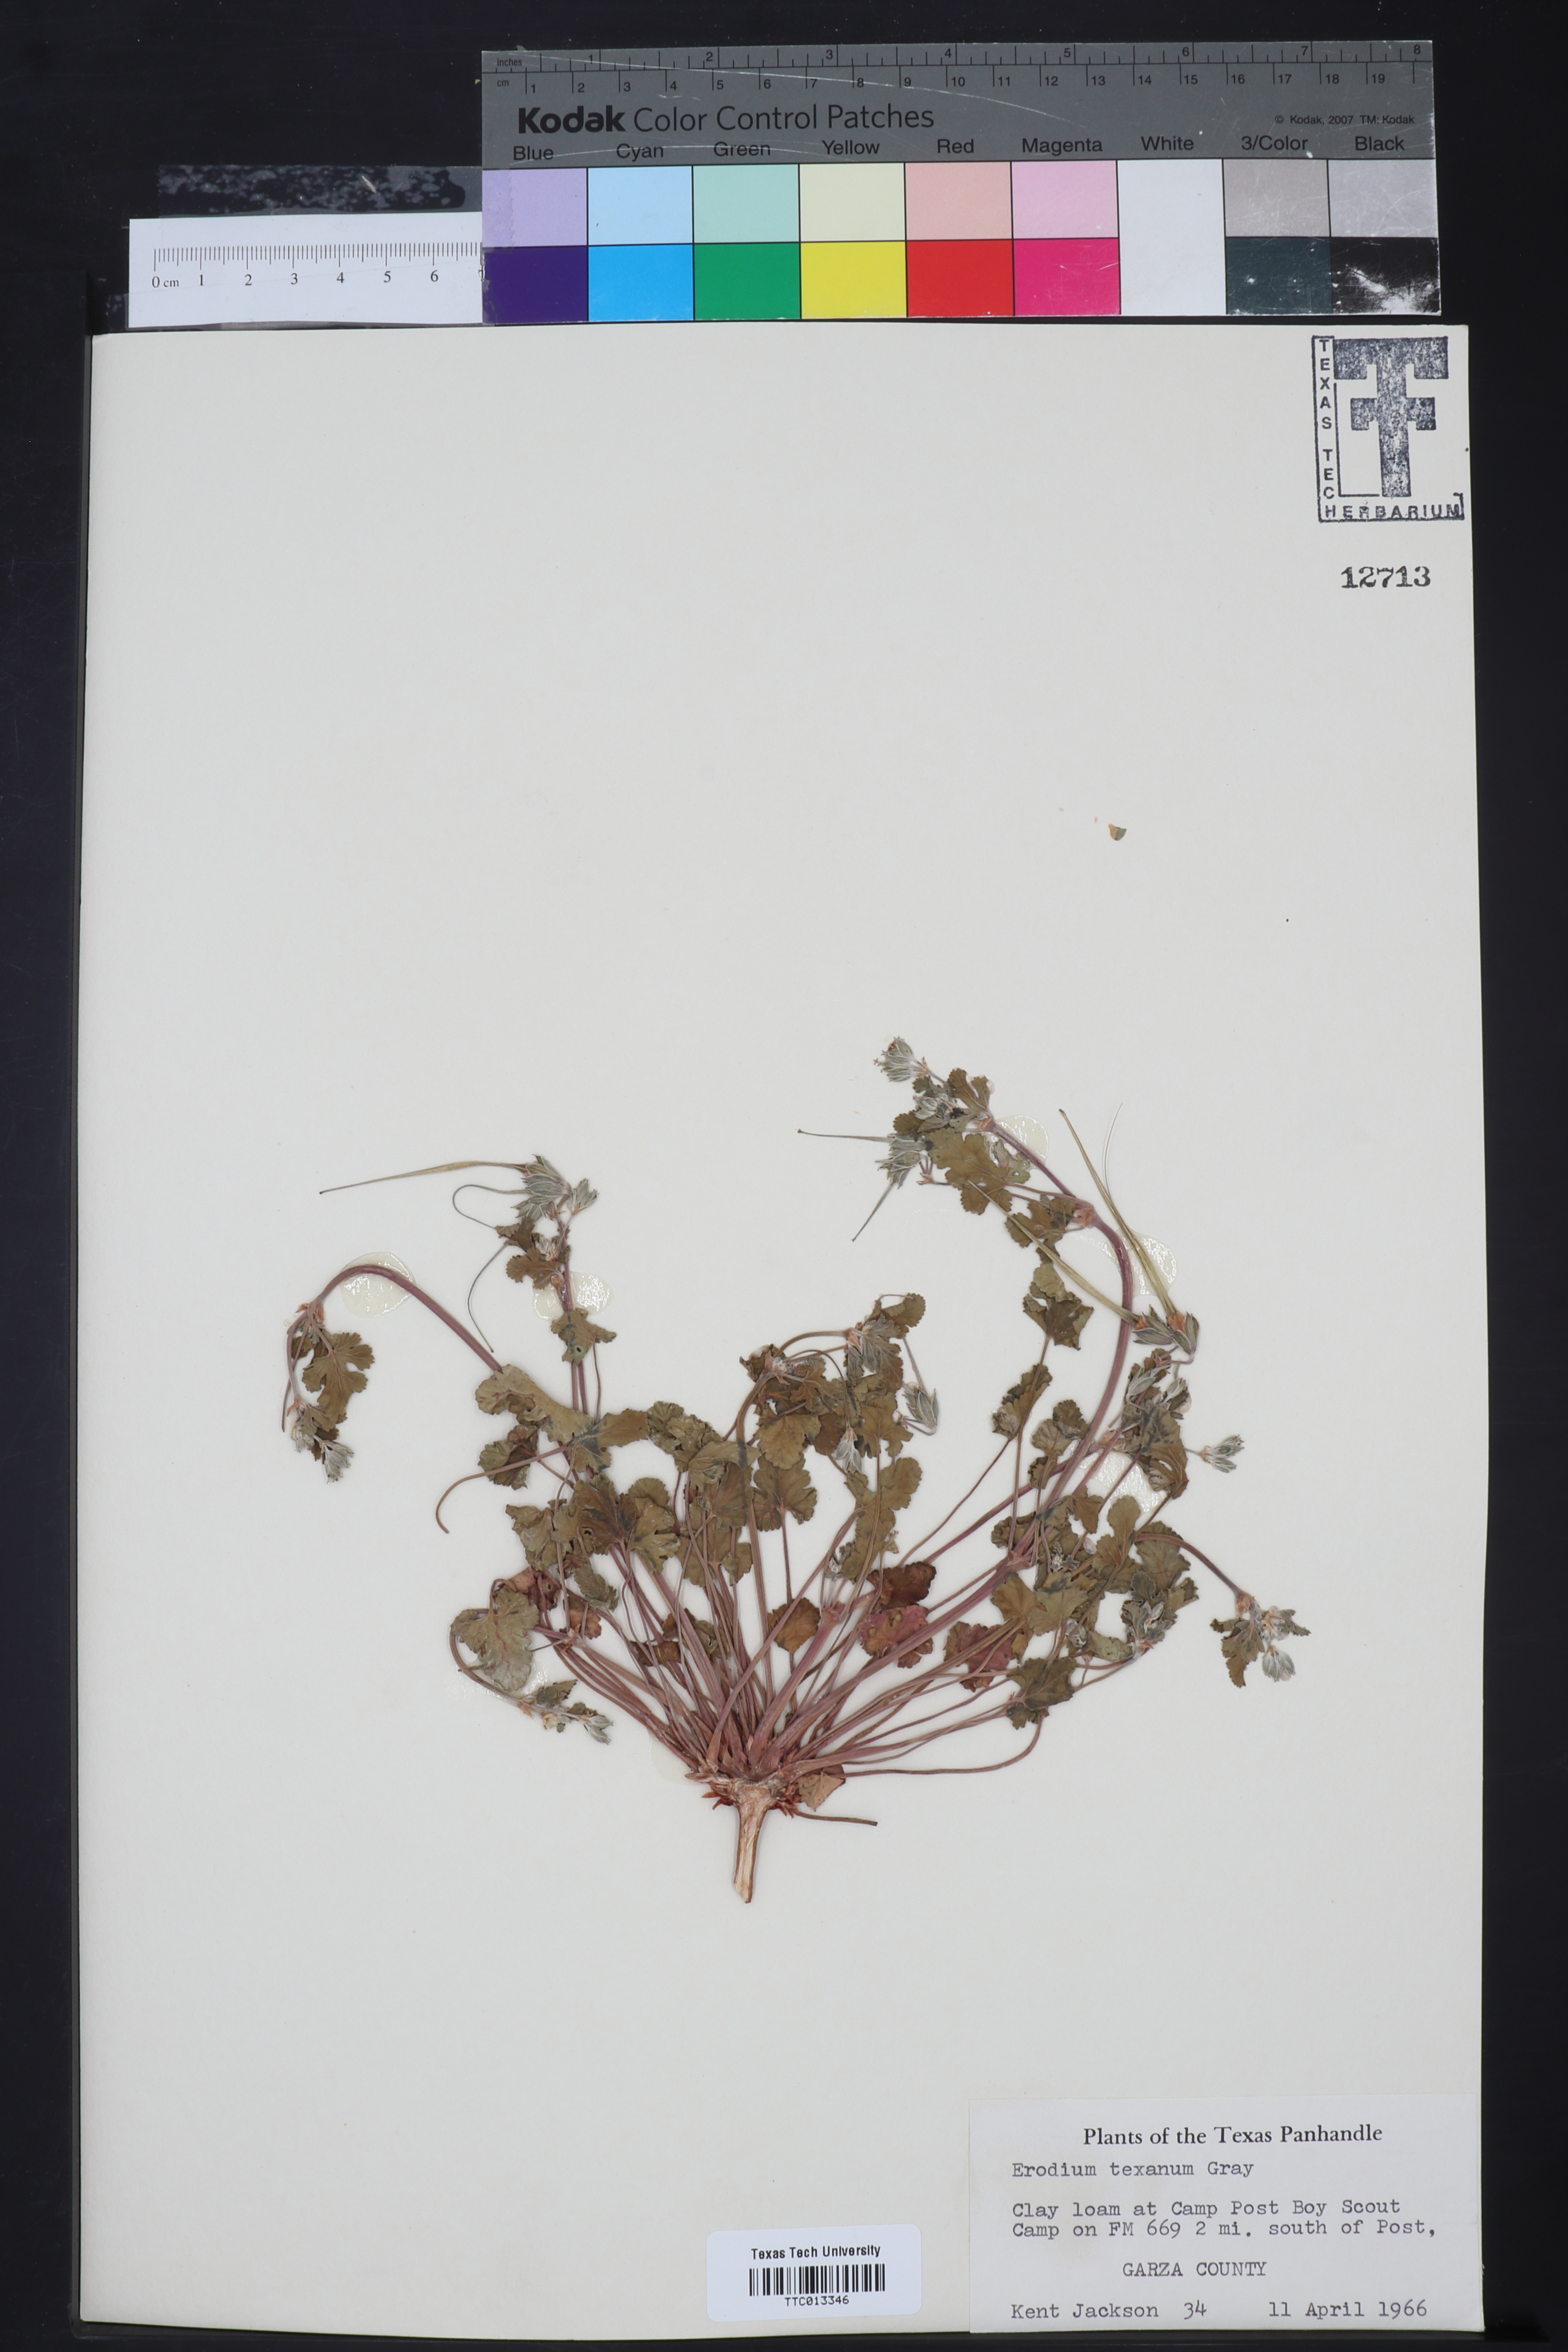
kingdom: Plantae
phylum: Tracheophyta
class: Magnoliopsida
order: Geraniales
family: Geraniaceae
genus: Erodium
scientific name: Erodium texanum
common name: Texas stork's-bill
